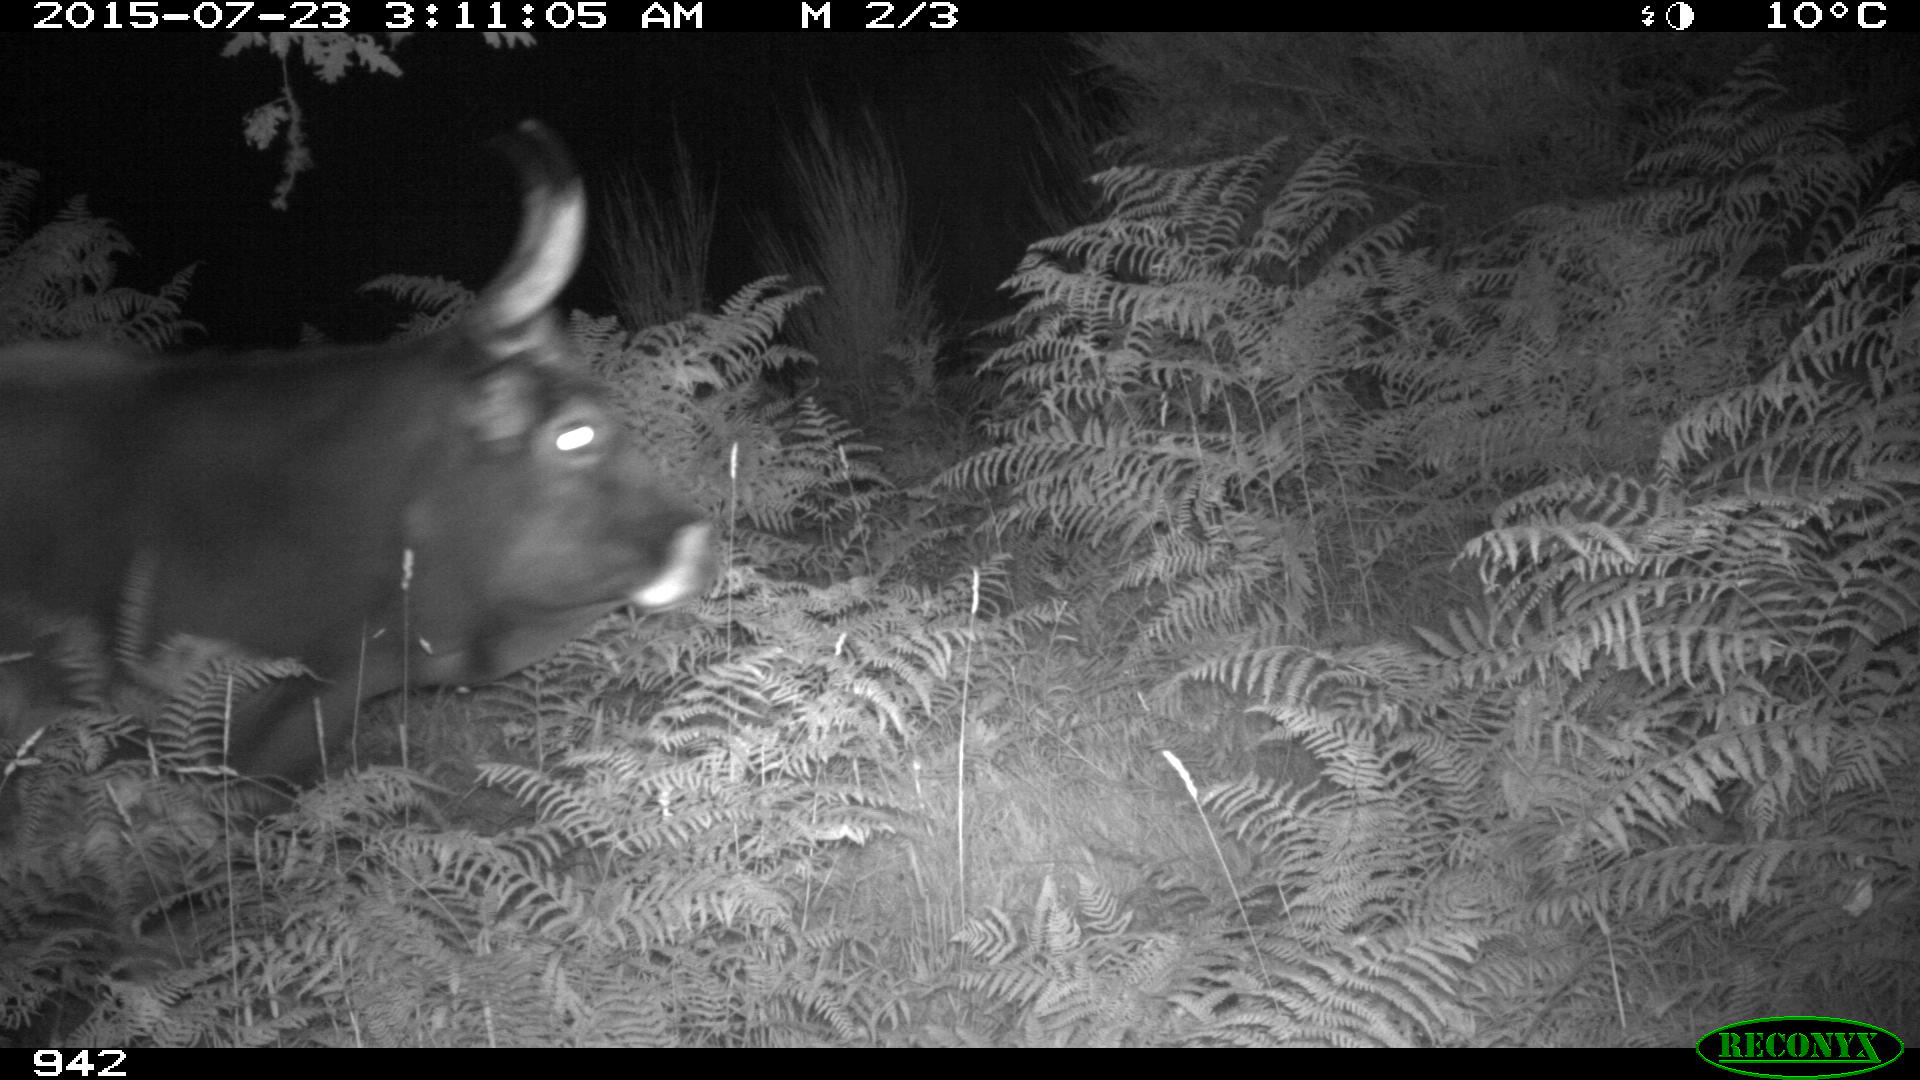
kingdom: Animalia
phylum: Chordata
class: Mammalia
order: Artiodactyla
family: Bovidae
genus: Bos
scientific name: Bos taurus
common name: Domesticated cattle
